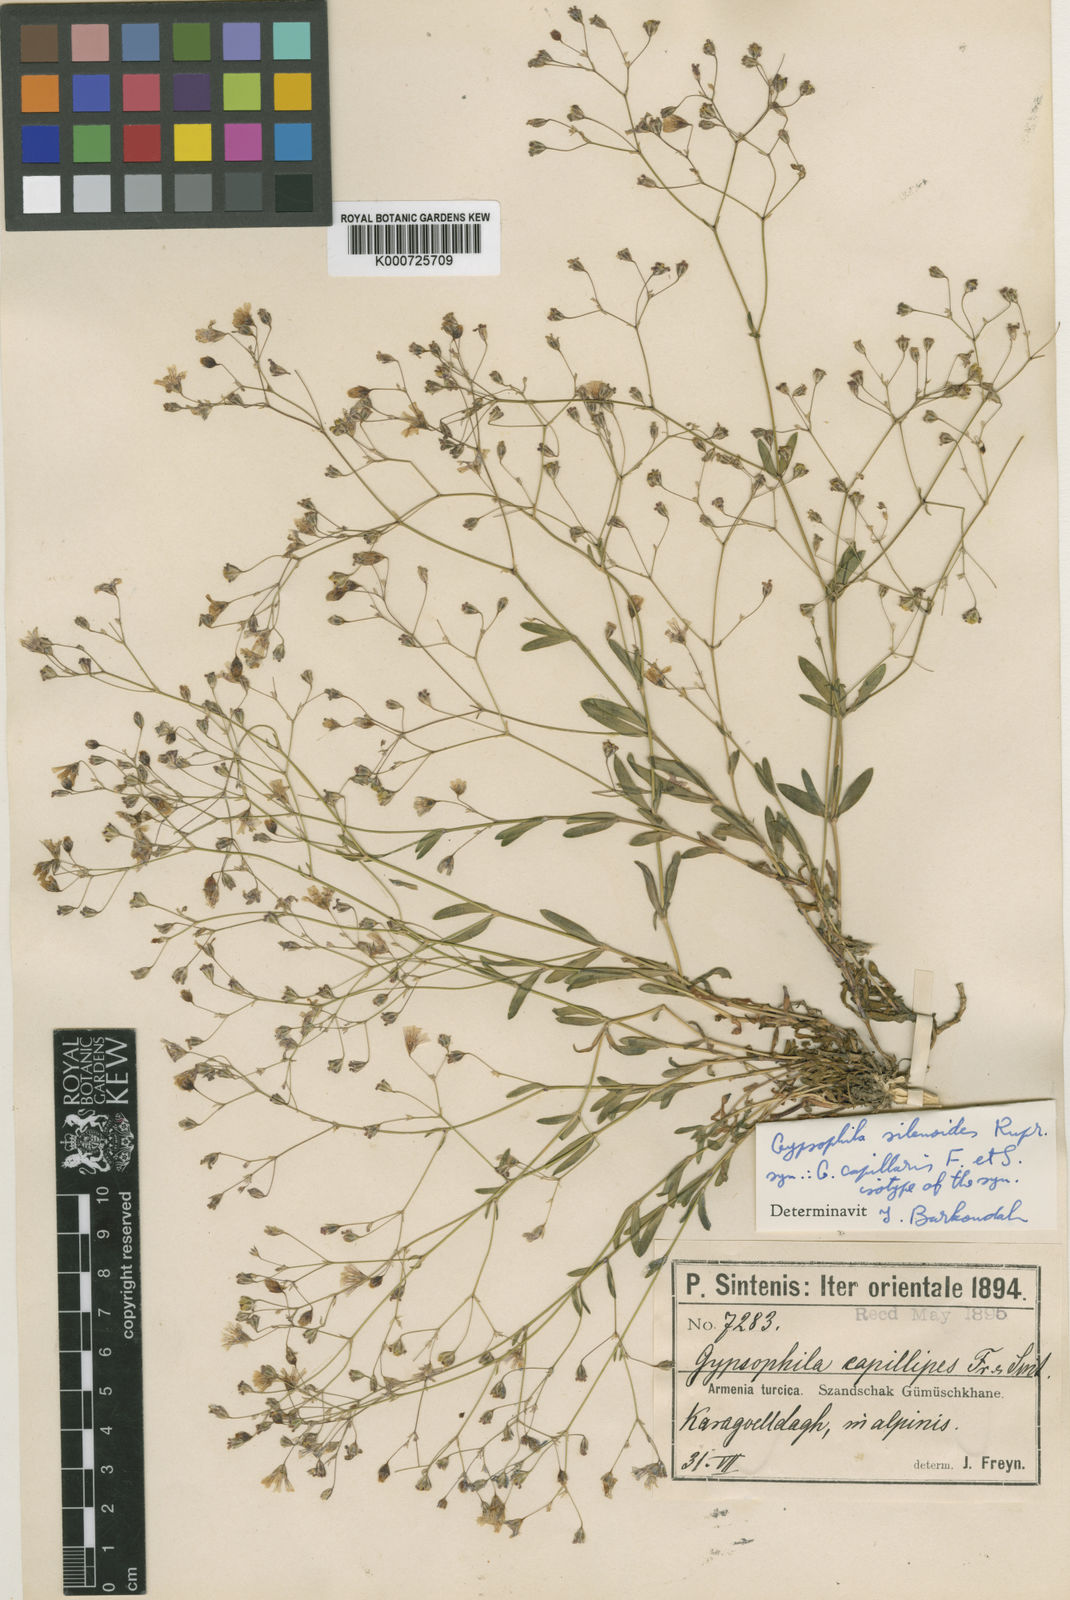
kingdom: Plantae
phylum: Tracheophyta
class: Magnoliopsida
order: Caryophyllales
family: Caryophyllaceae
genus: Gypsophila
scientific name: Gypsophila silenoides
